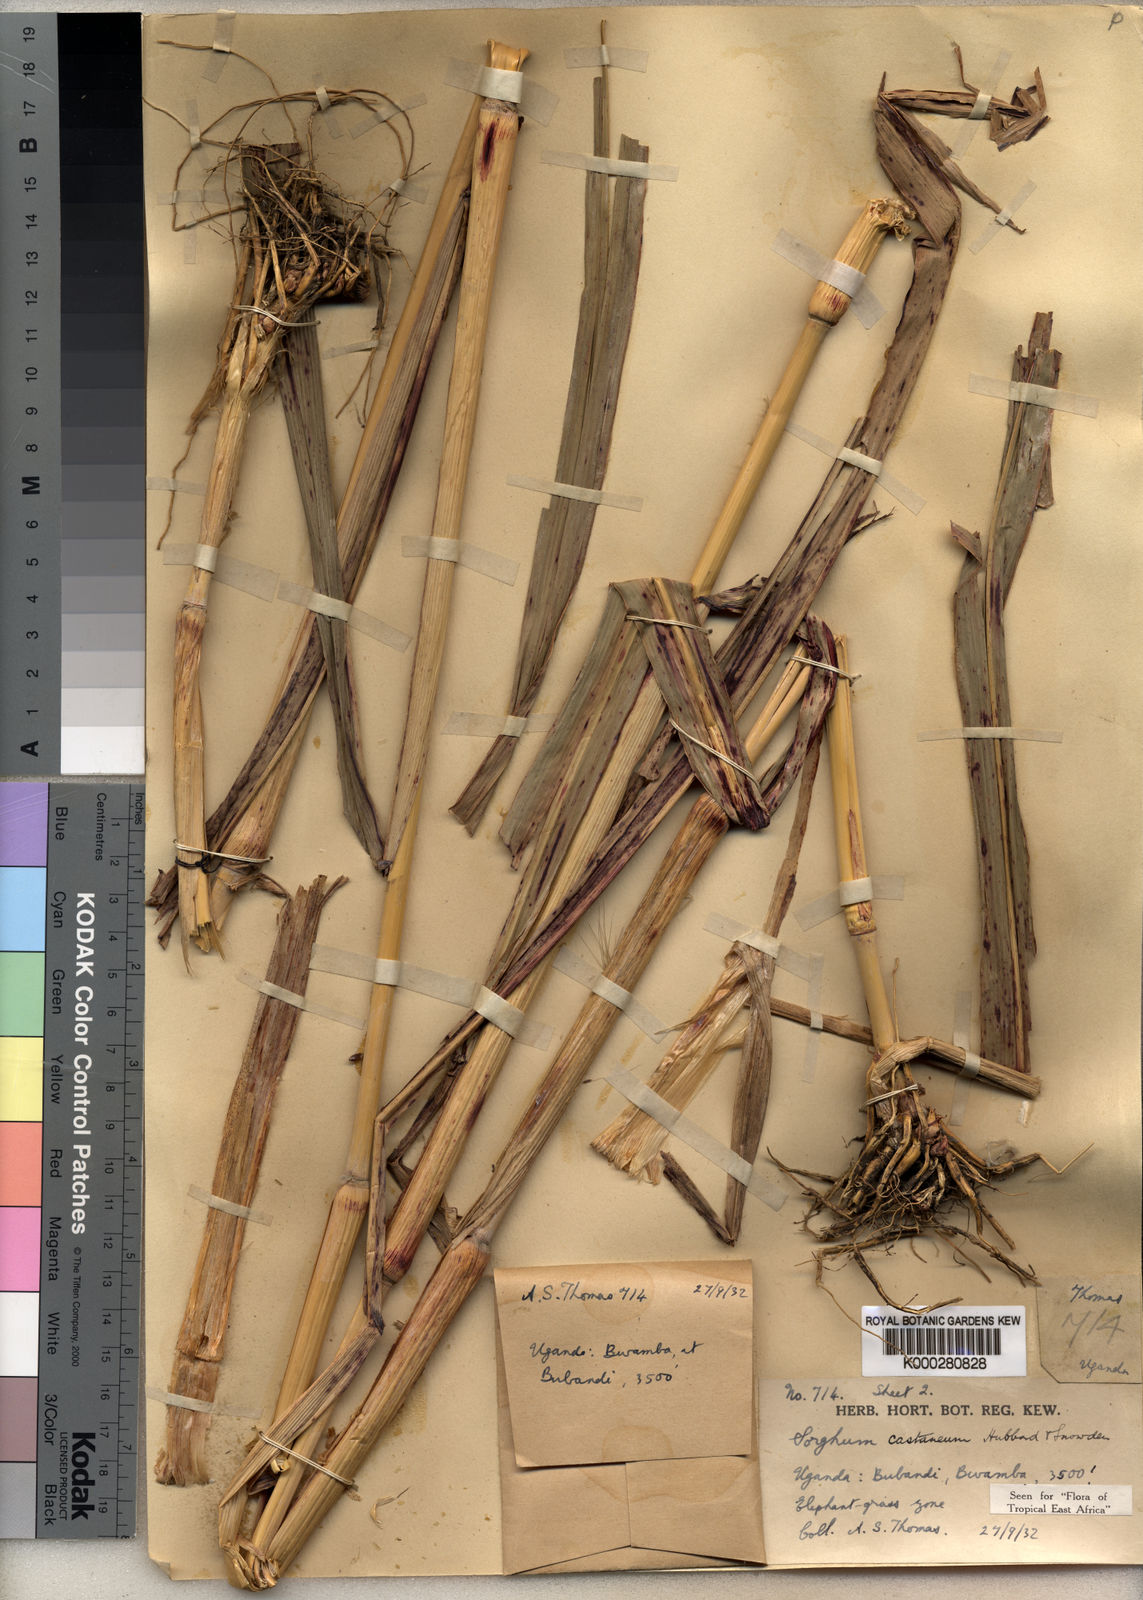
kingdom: Plantae
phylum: Tracheophyta
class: Liliopsida
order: Poales
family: Poaceae
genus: Sorghum
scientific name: Sorghum arundinaceum
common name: Sorghum
